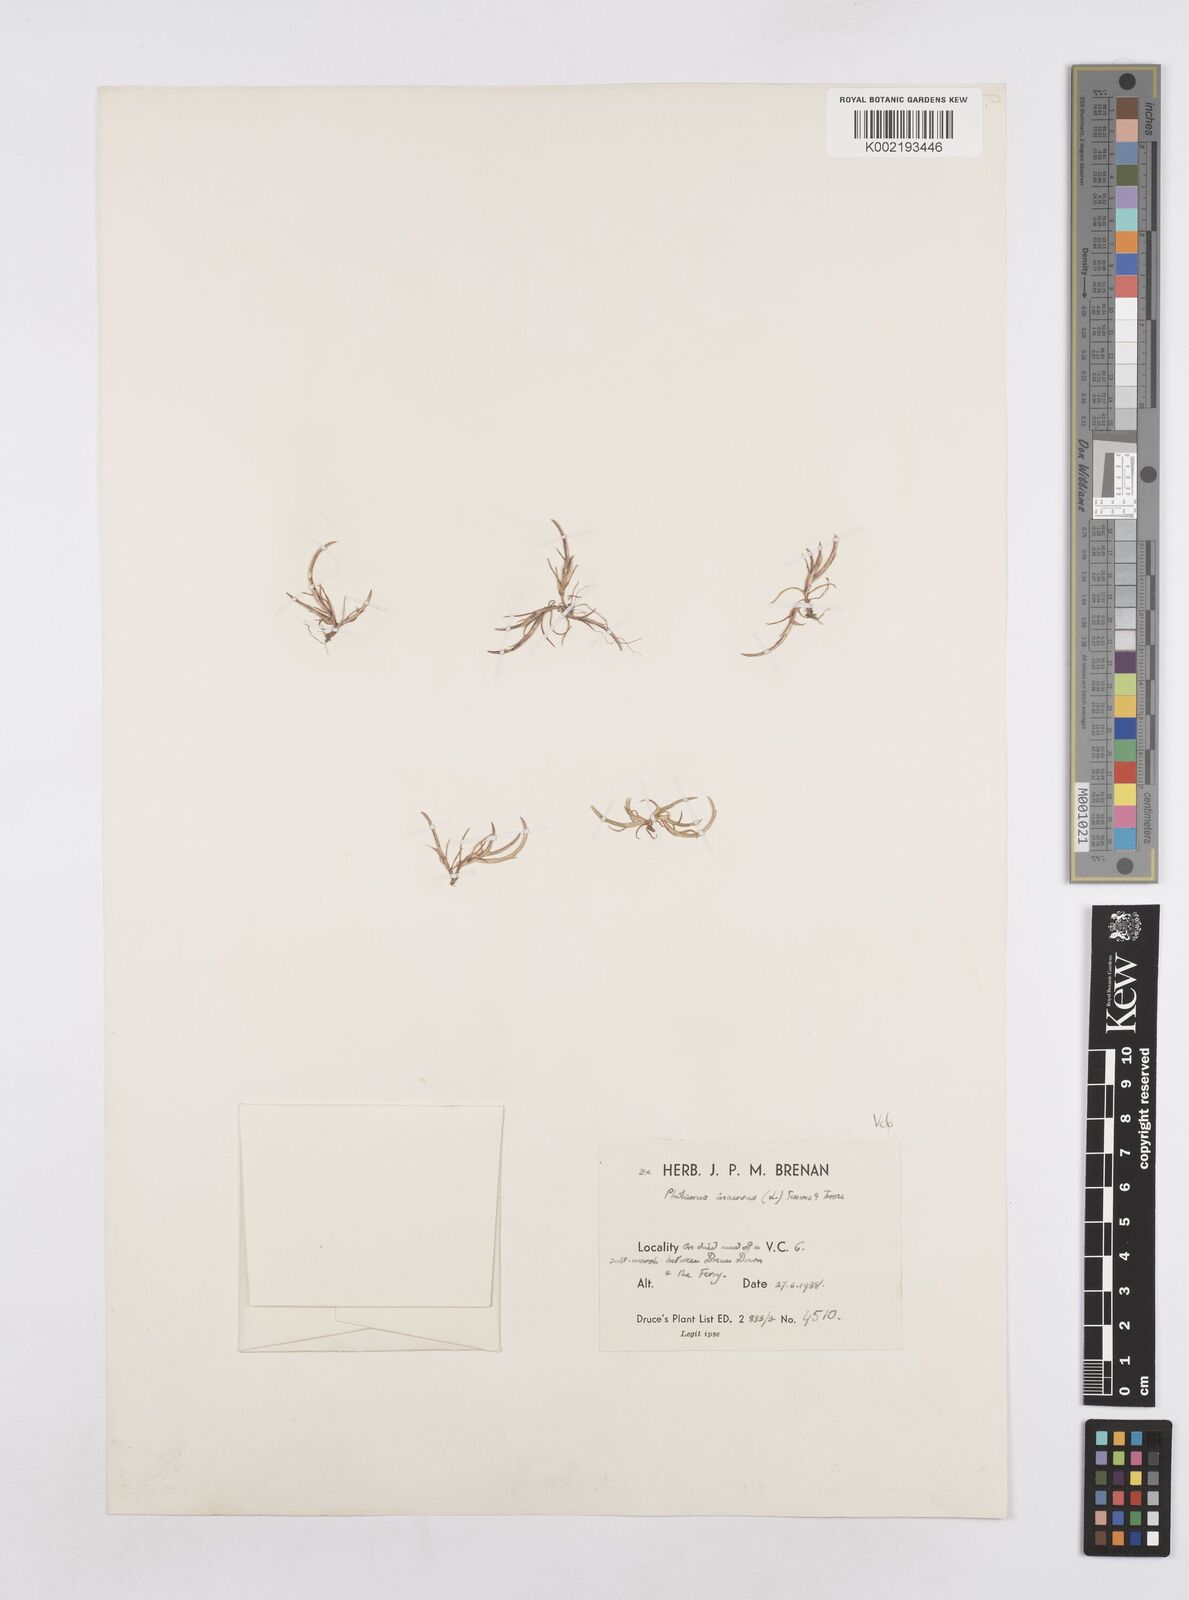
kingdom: Plantae
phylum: Tracheophyta
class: Liliopsida
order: Poales
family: Poaceae
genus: Parapholis
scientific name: Parapholis incurva
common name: Curved sicklegrass
